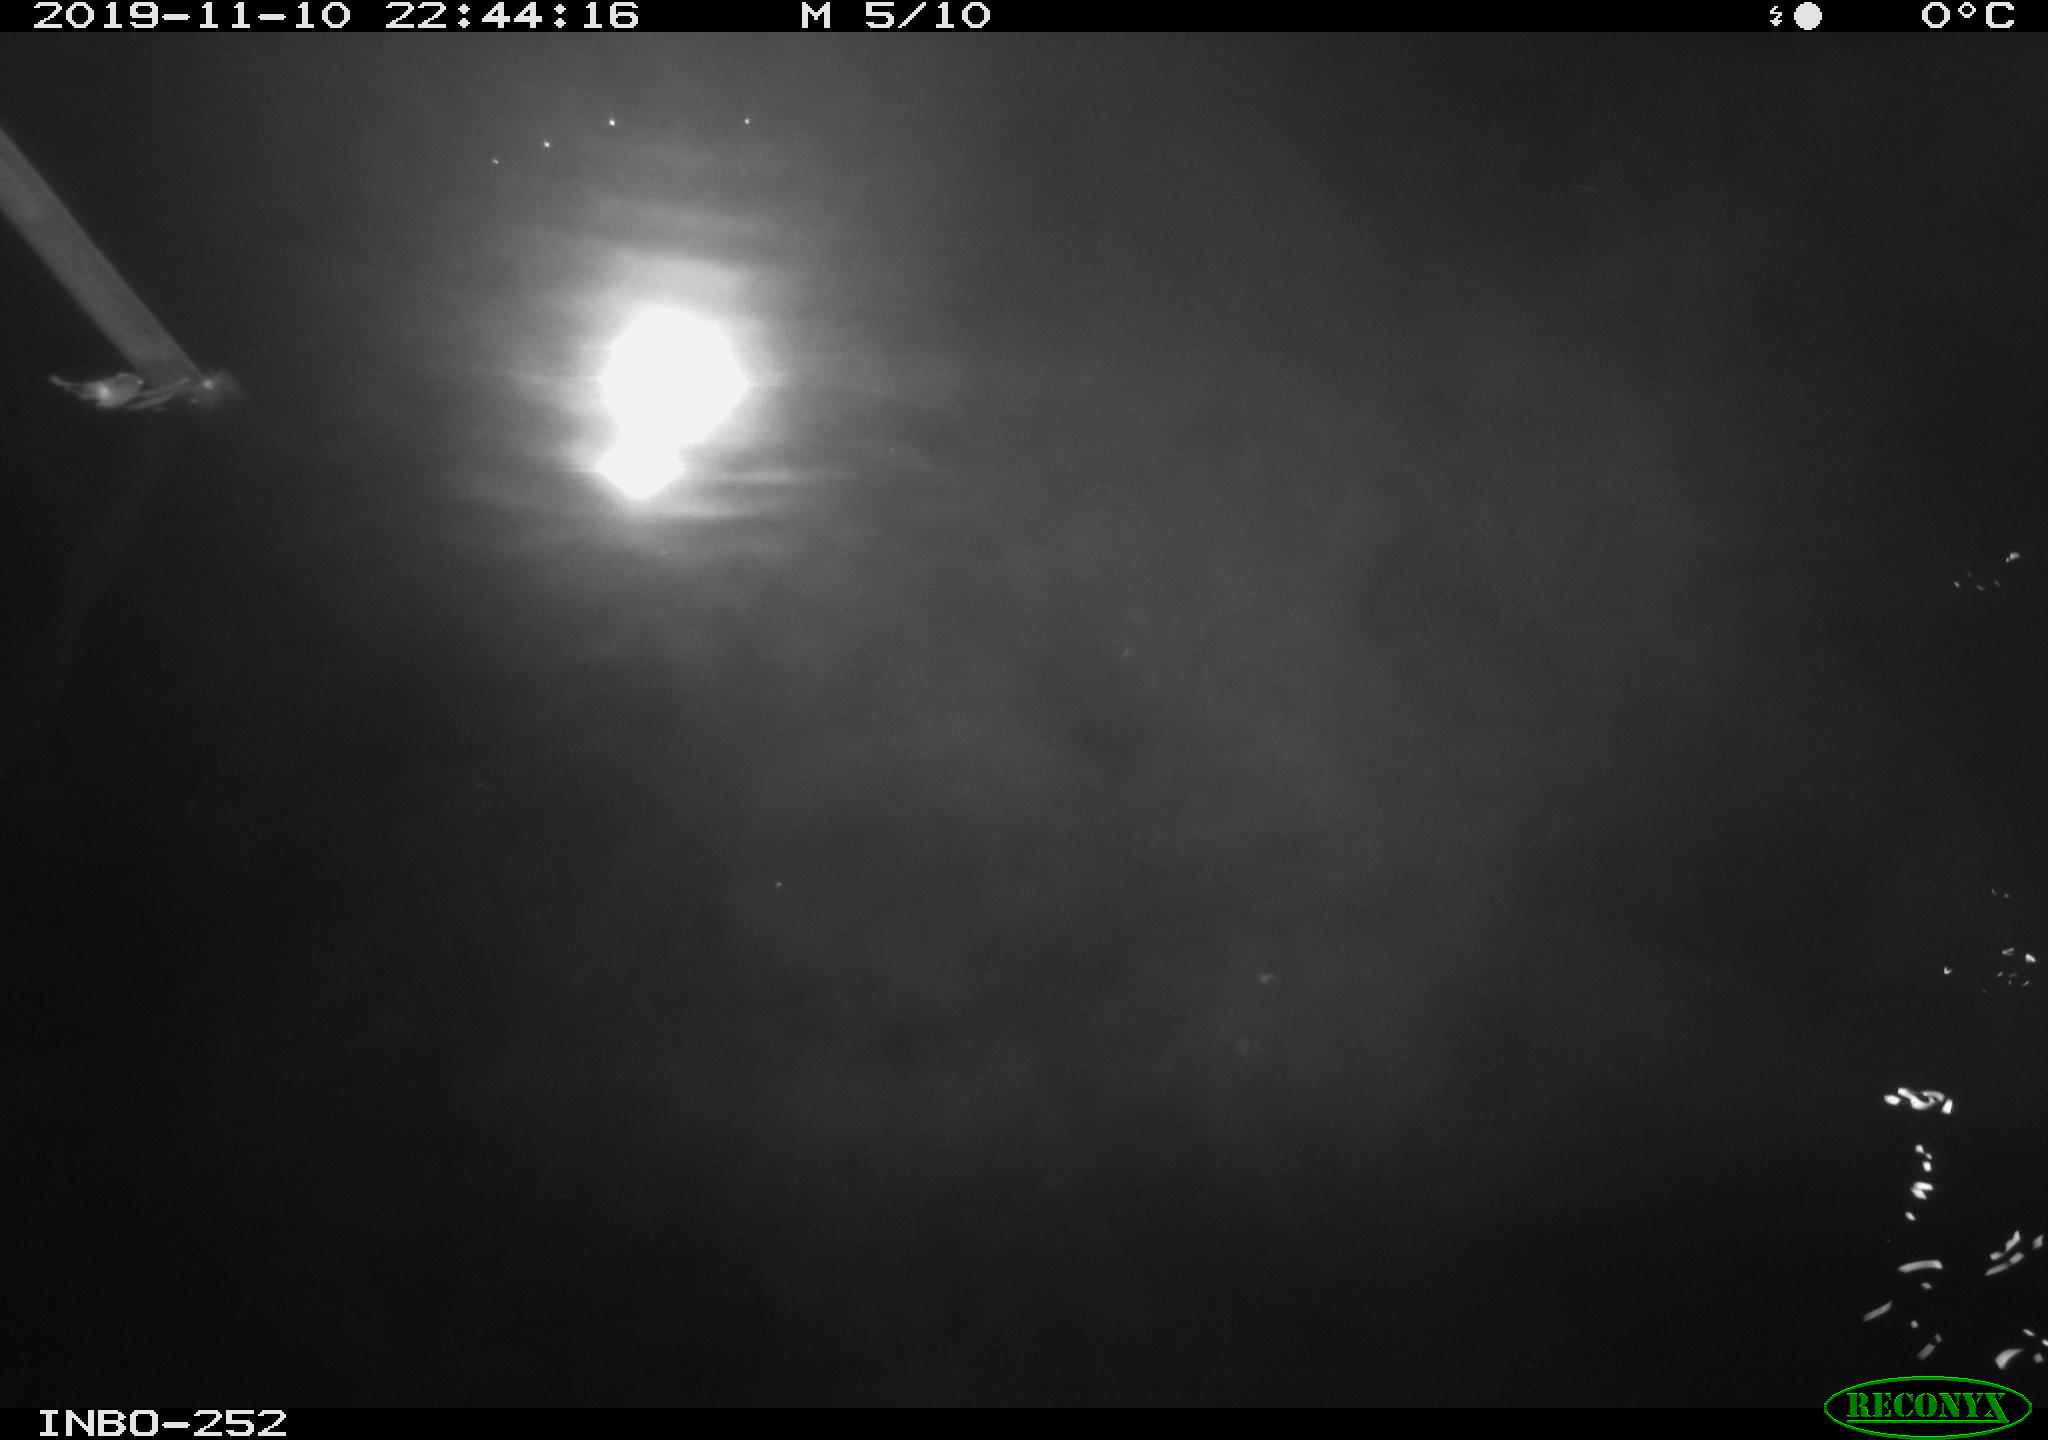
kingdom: Animalia
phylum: Chordata
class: Aves
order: Anseriformes
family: Anatidae
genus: Anas
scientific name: Anas platyrhynchos
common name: Mallard
